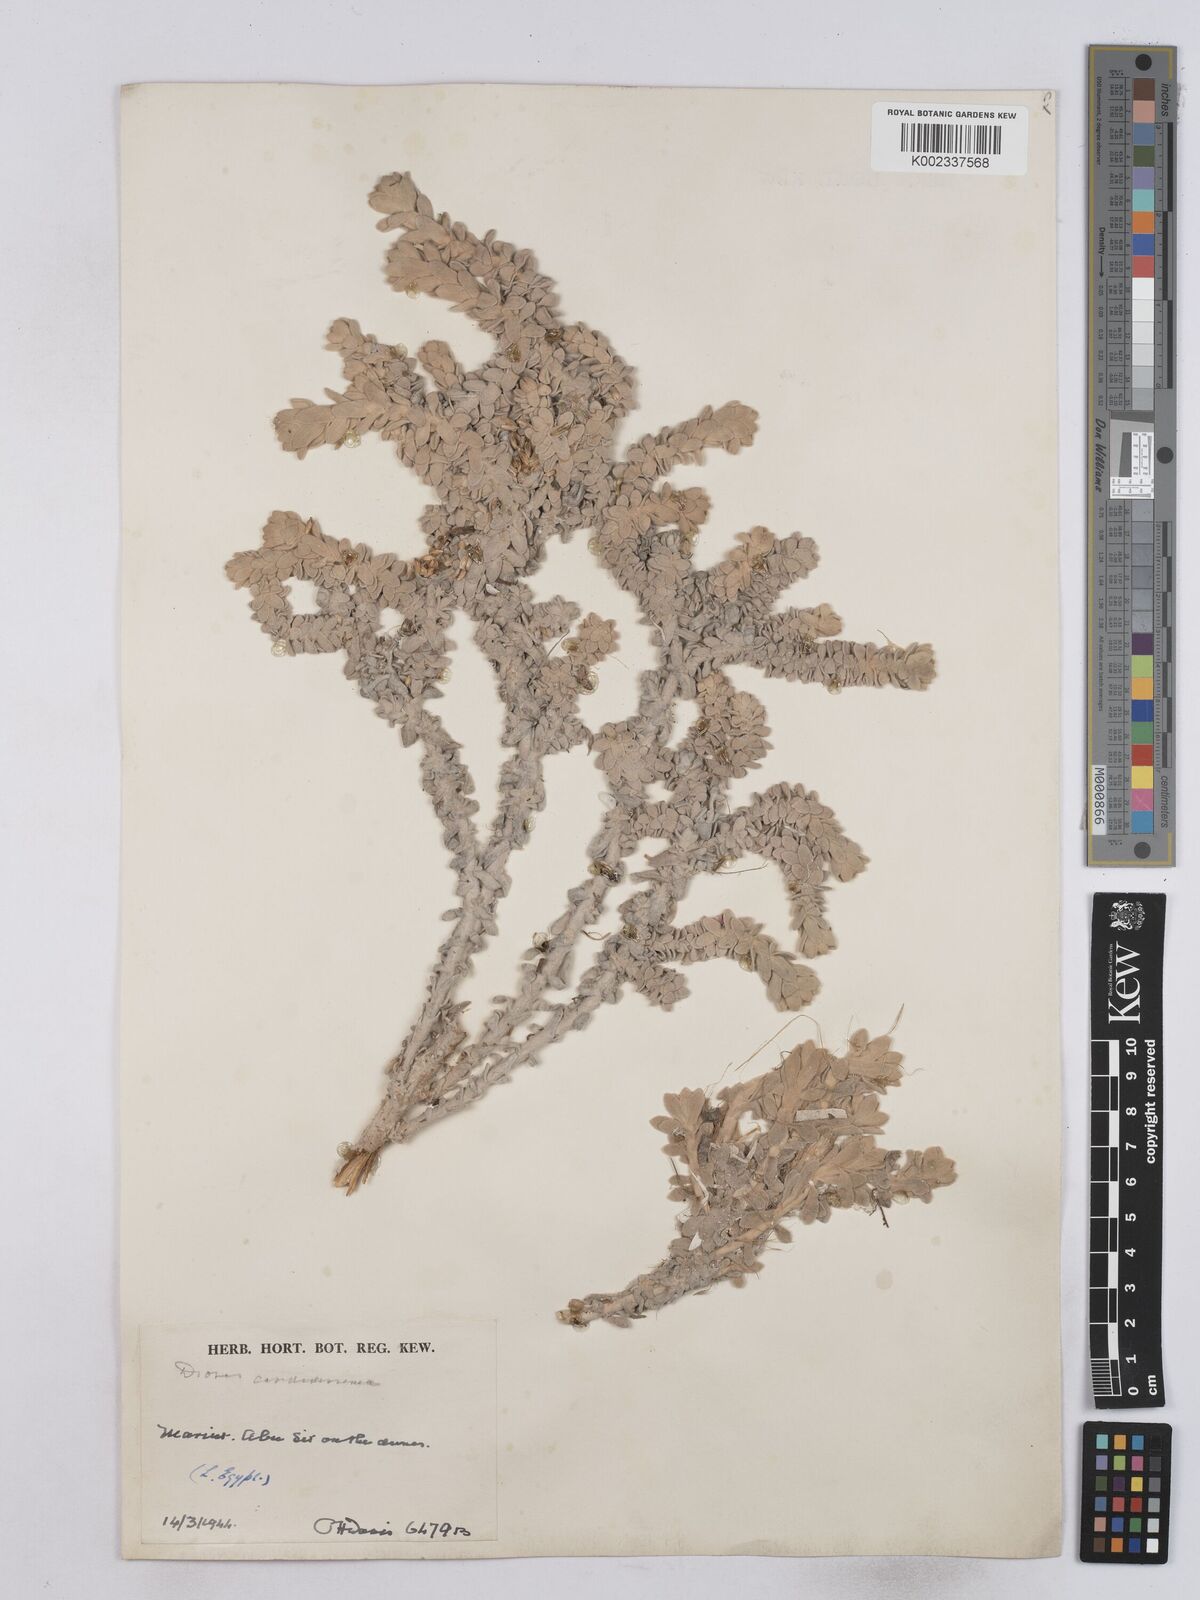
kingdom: Plantae
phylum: Tracheophyta
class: Magnoliopsida
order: Asterales
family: Asteraceae
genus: Achillea
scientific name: Achillea maritima
